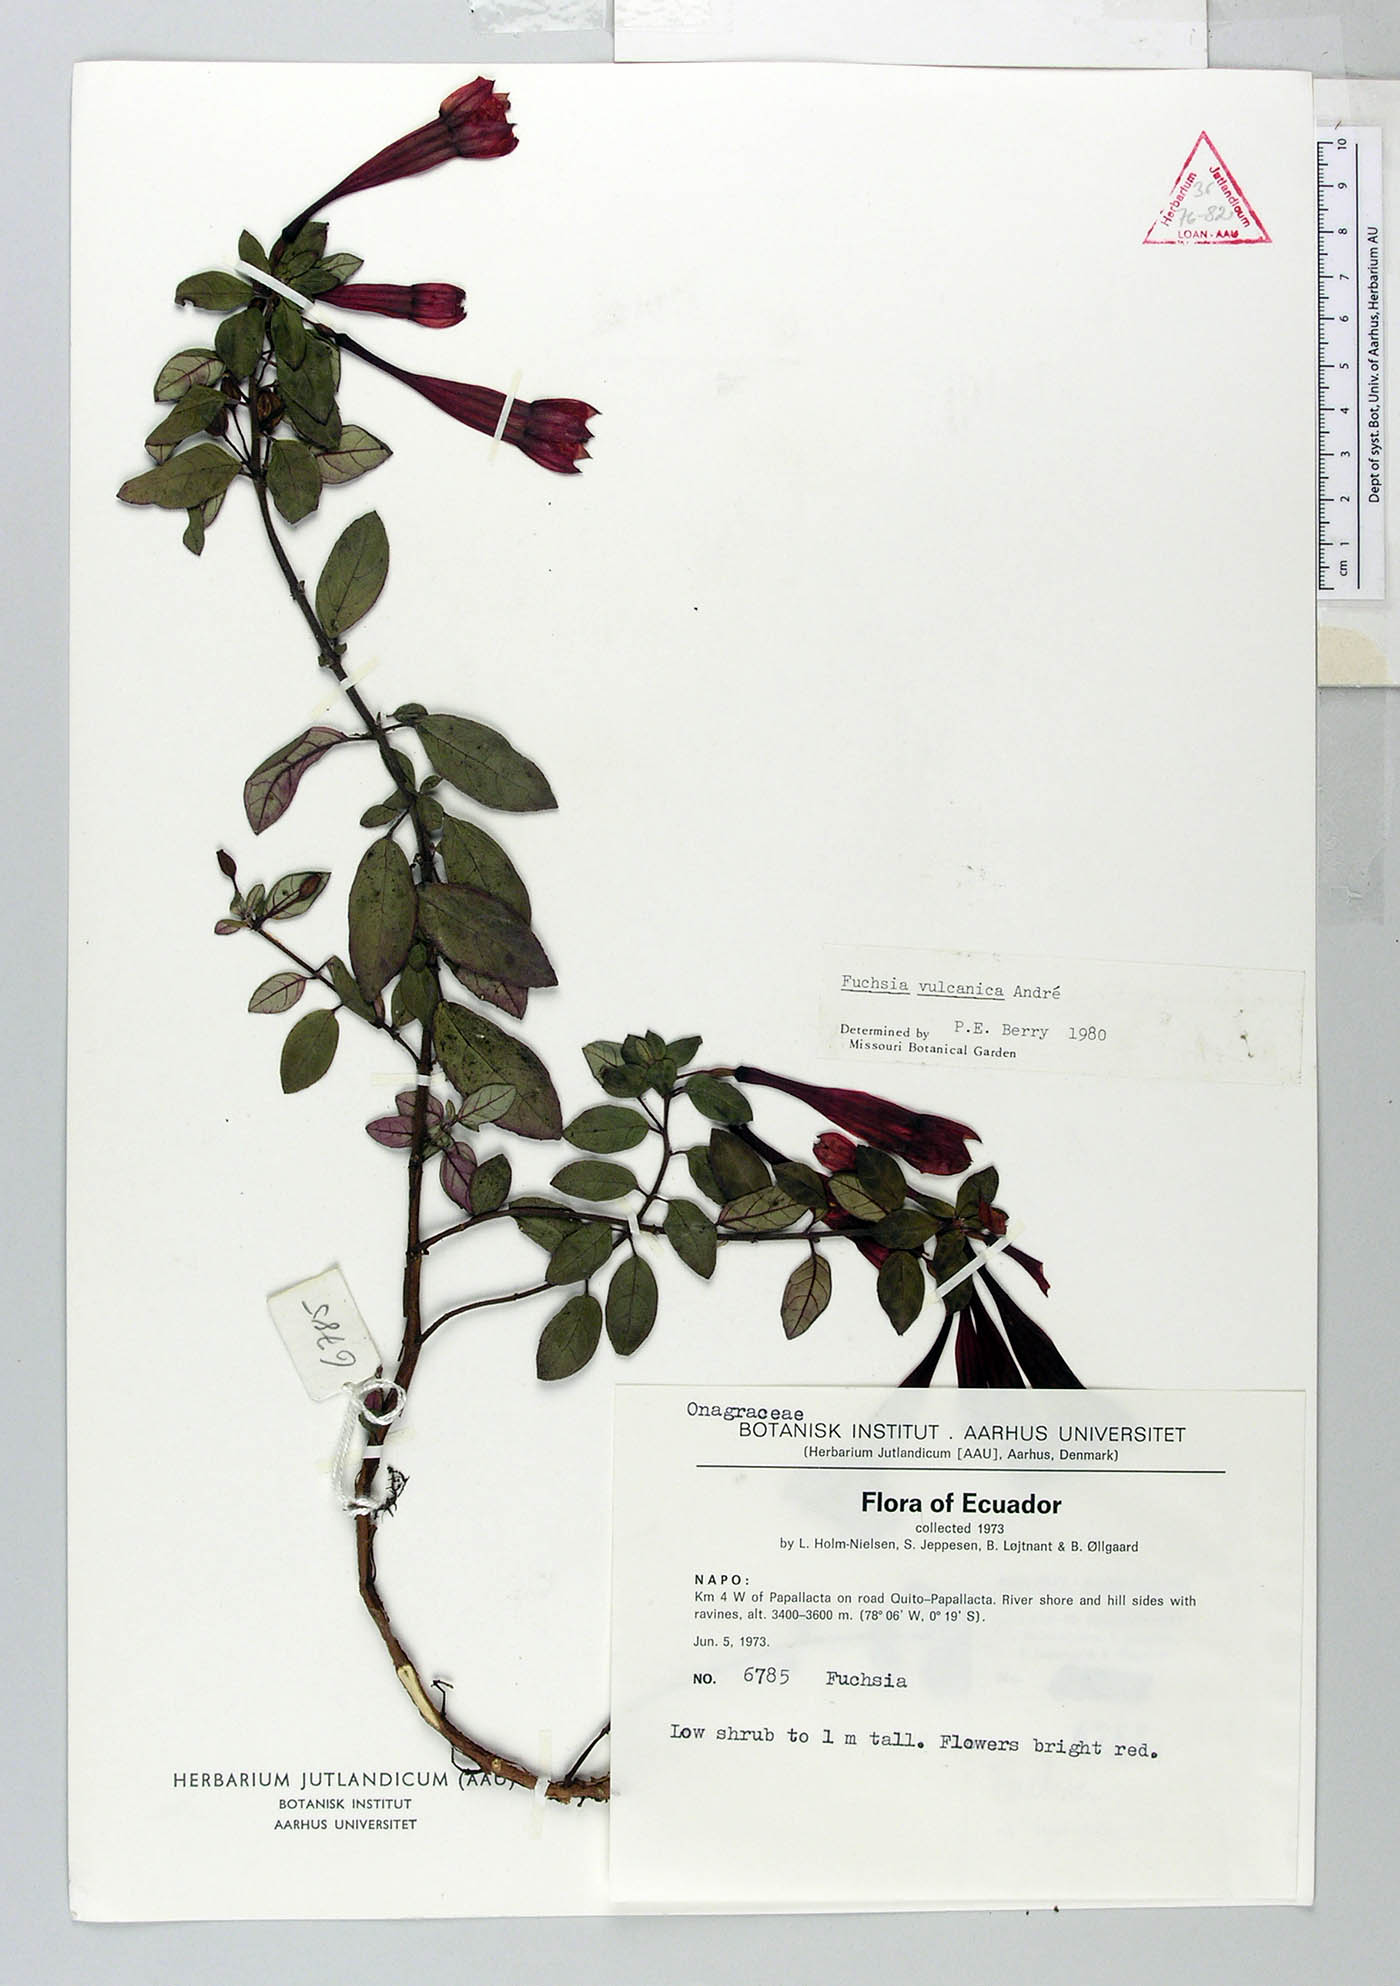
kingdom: Plantae
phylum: Tracheophyta
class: Magnoliopsida
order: Myrtales
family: Onagraceae
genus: Fuchsia
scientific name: Fuchsia vulcanica
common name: Volcan's fuchsia
